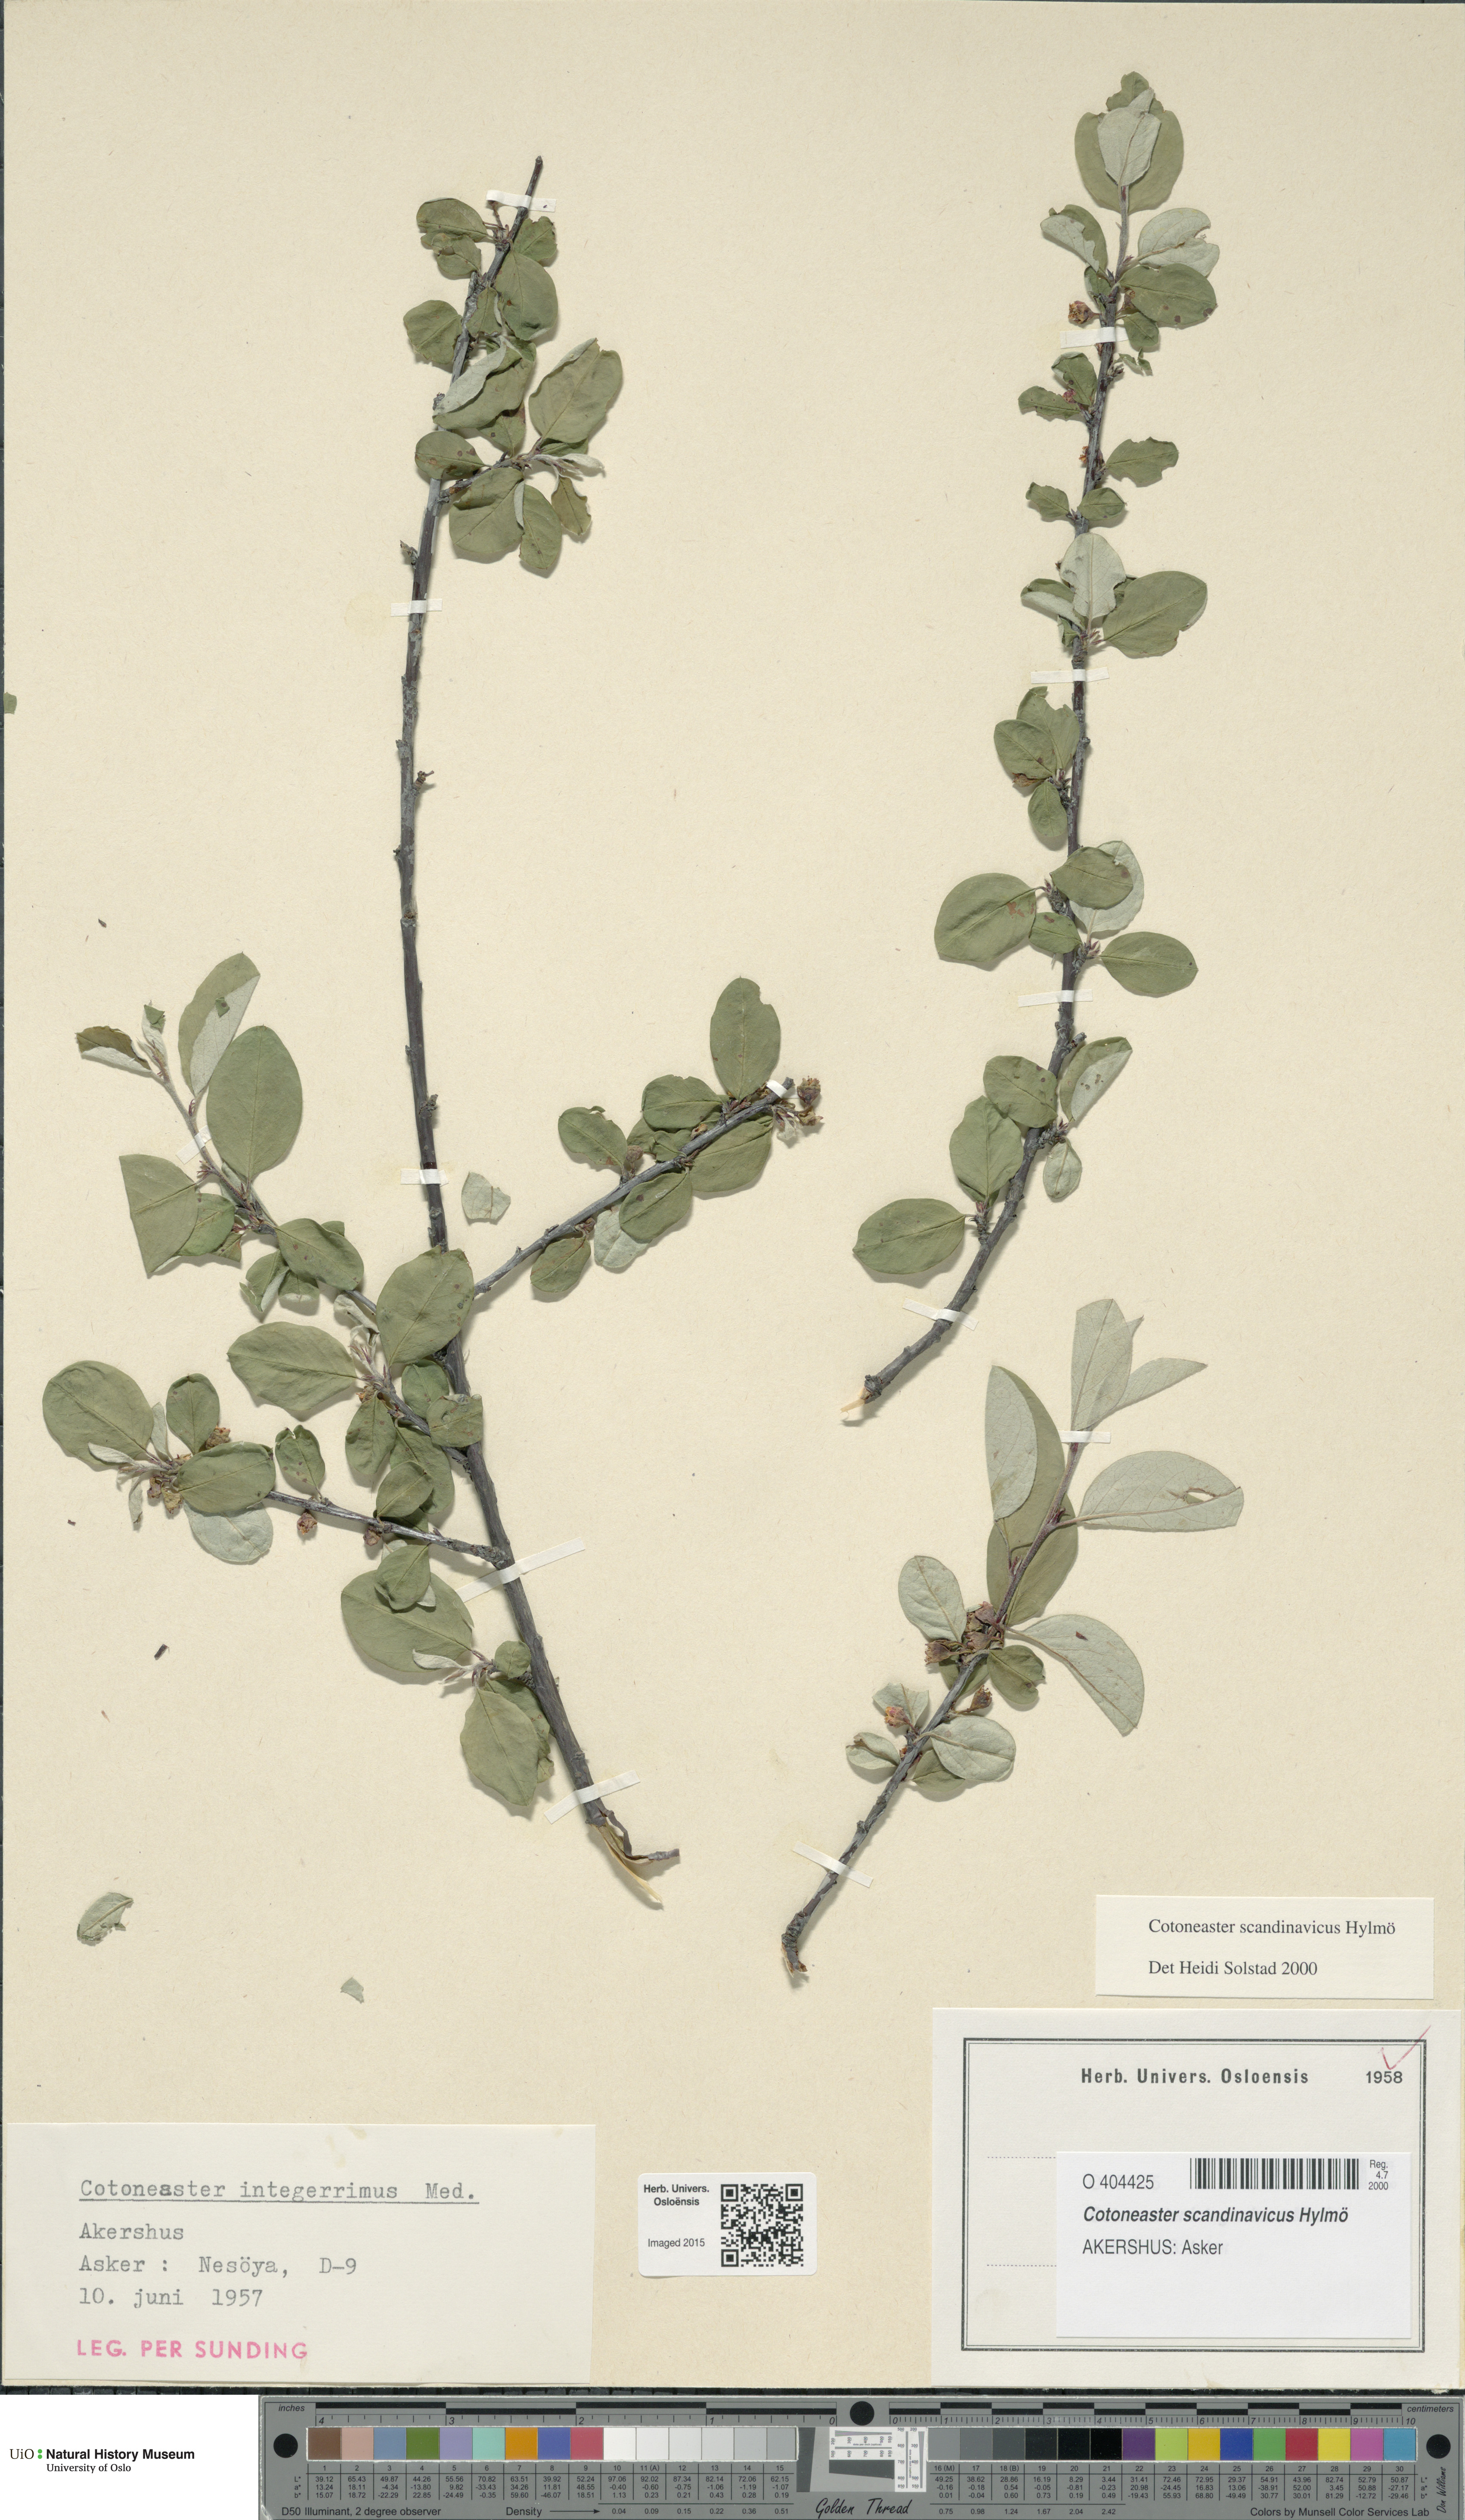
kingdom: Plantae
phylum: Tracheophyta
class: Magnoliopsida
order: Rosales
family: Rosaceae
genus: Cotoneaster
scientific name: Cotoneaster integerrimus
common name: Wild cotoneaster
